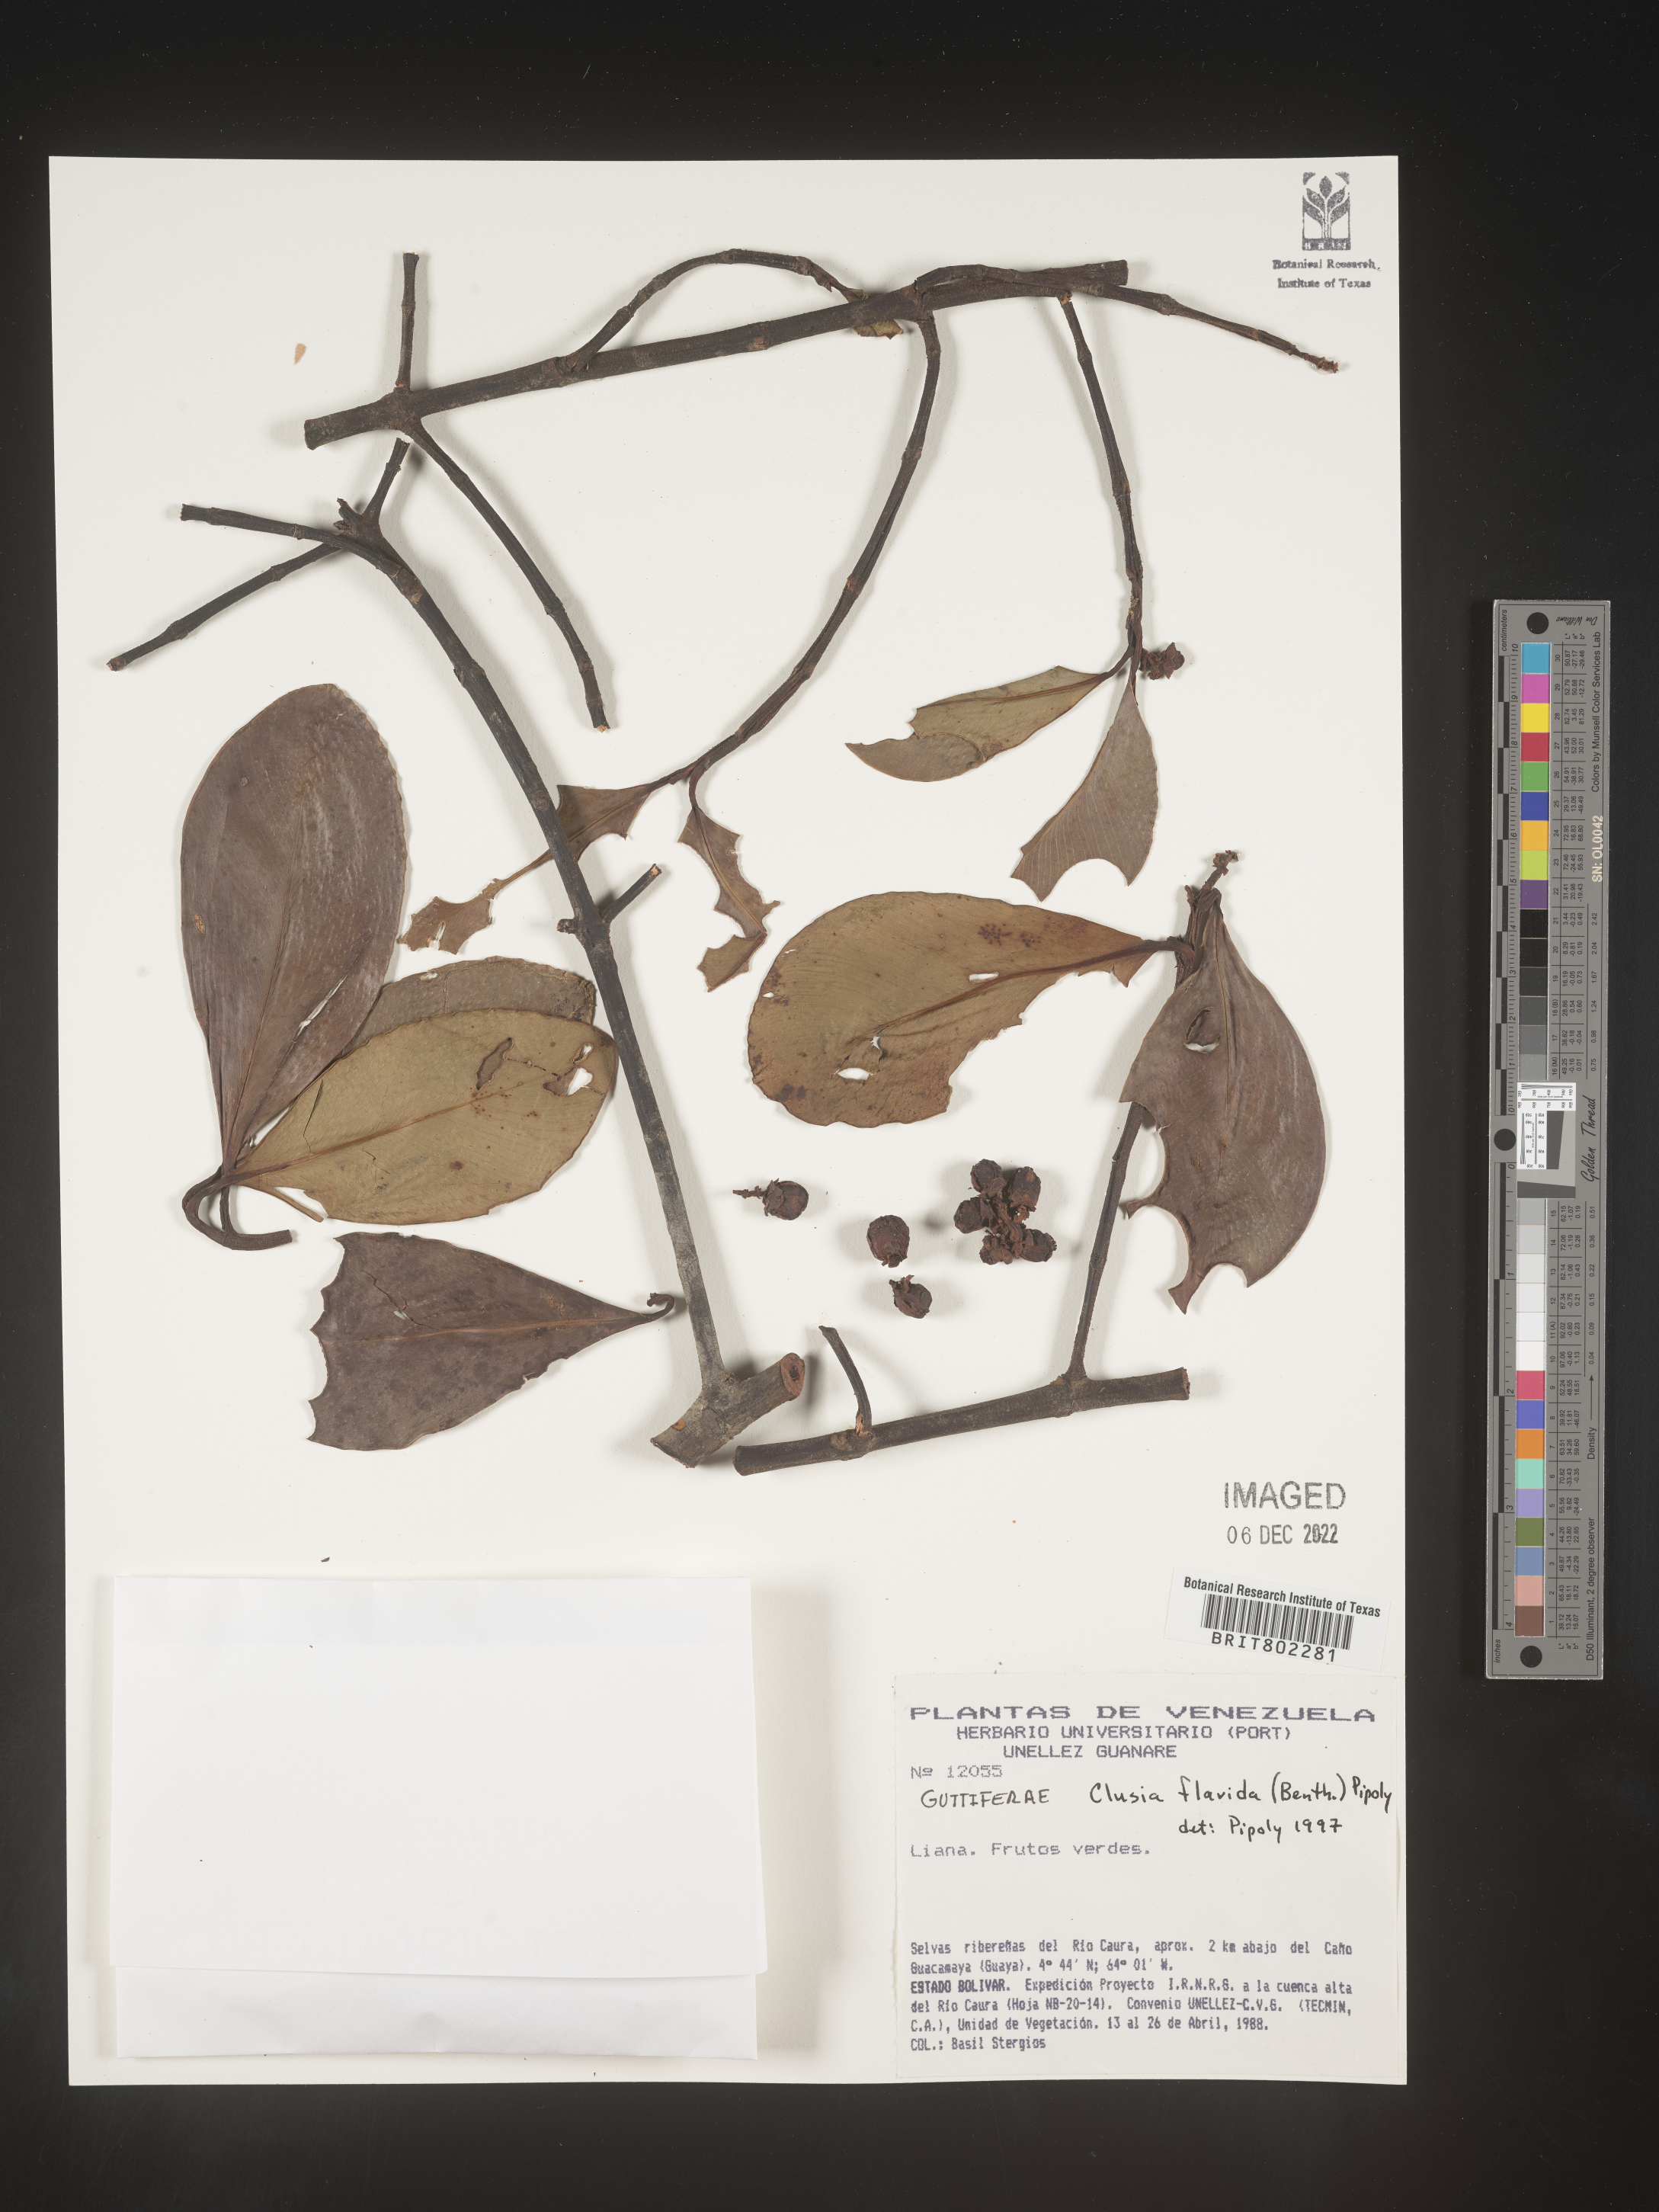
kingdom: Plantae
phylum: Tracheophyta
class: Magnoliopsida
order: Malpighiales
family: Clusiaceae
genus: Clusia
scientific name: Clusia flavida
